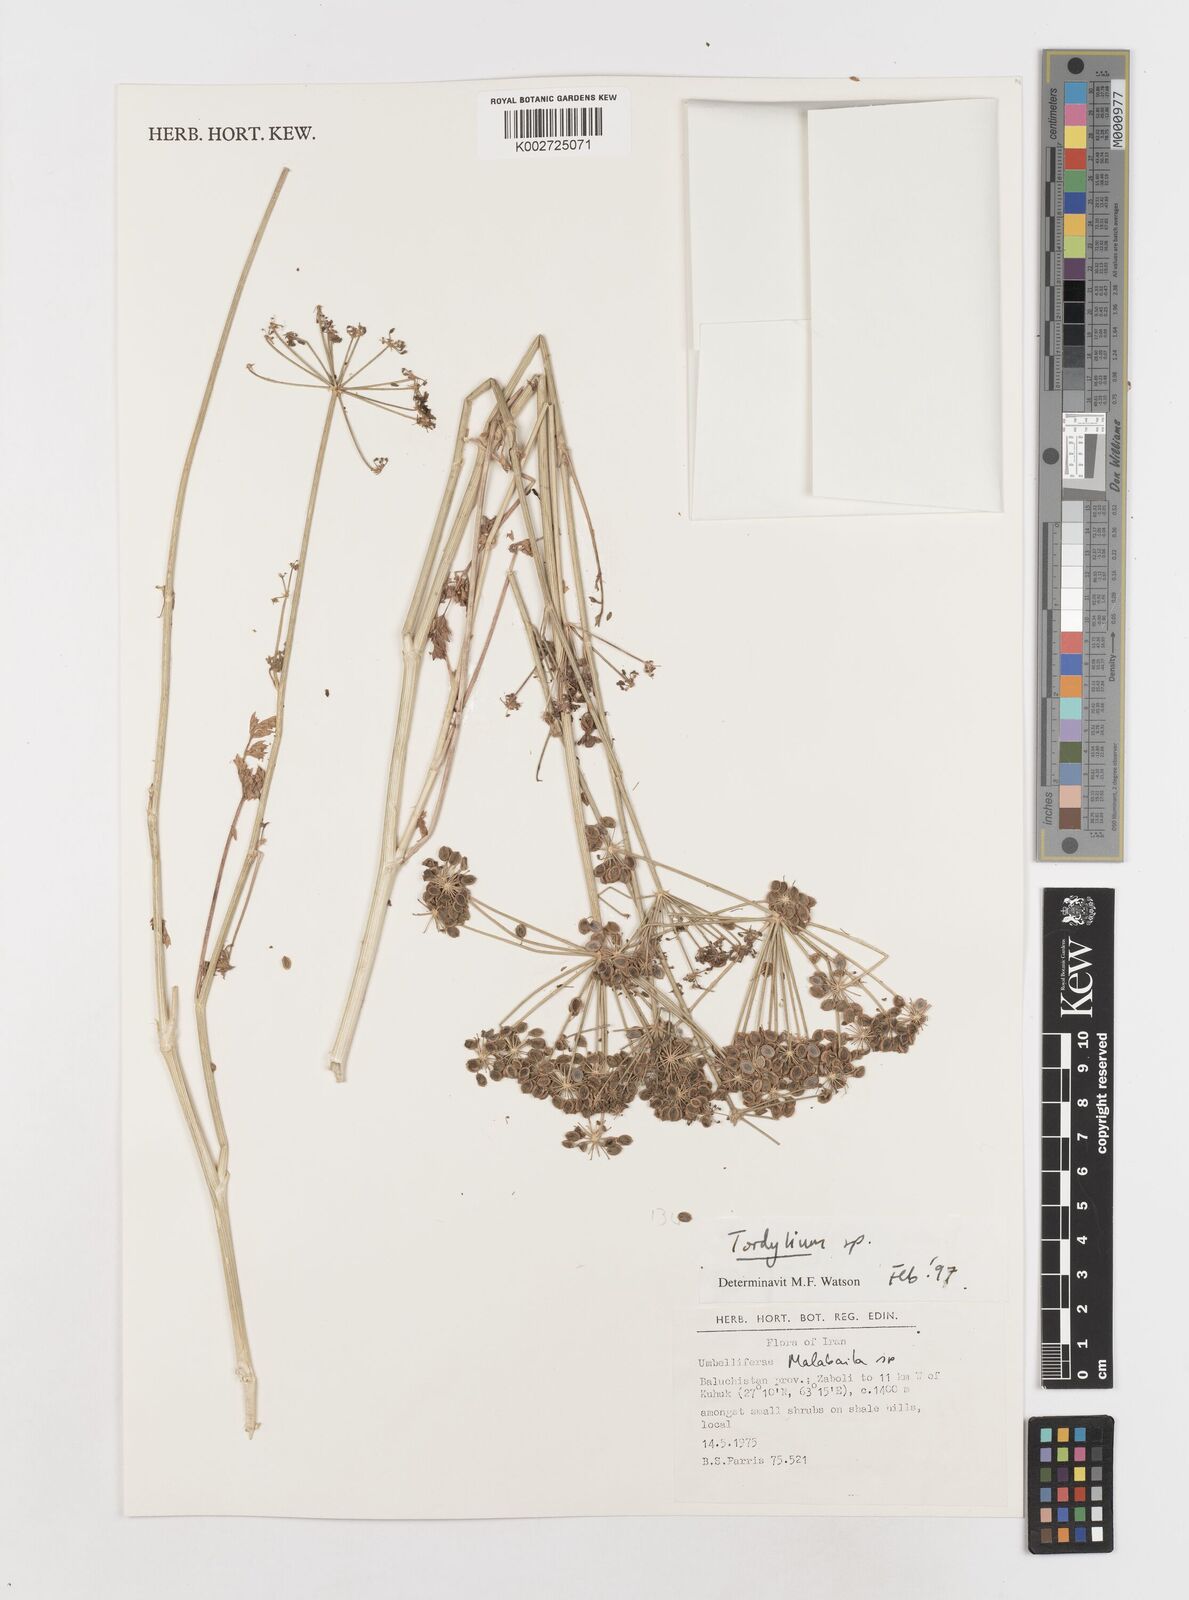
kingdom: Plantae
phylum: Tracheophyta
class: Magnoliopsida
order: Apiales
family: Apiaceae
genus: Tordylium
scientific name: Tordylium
